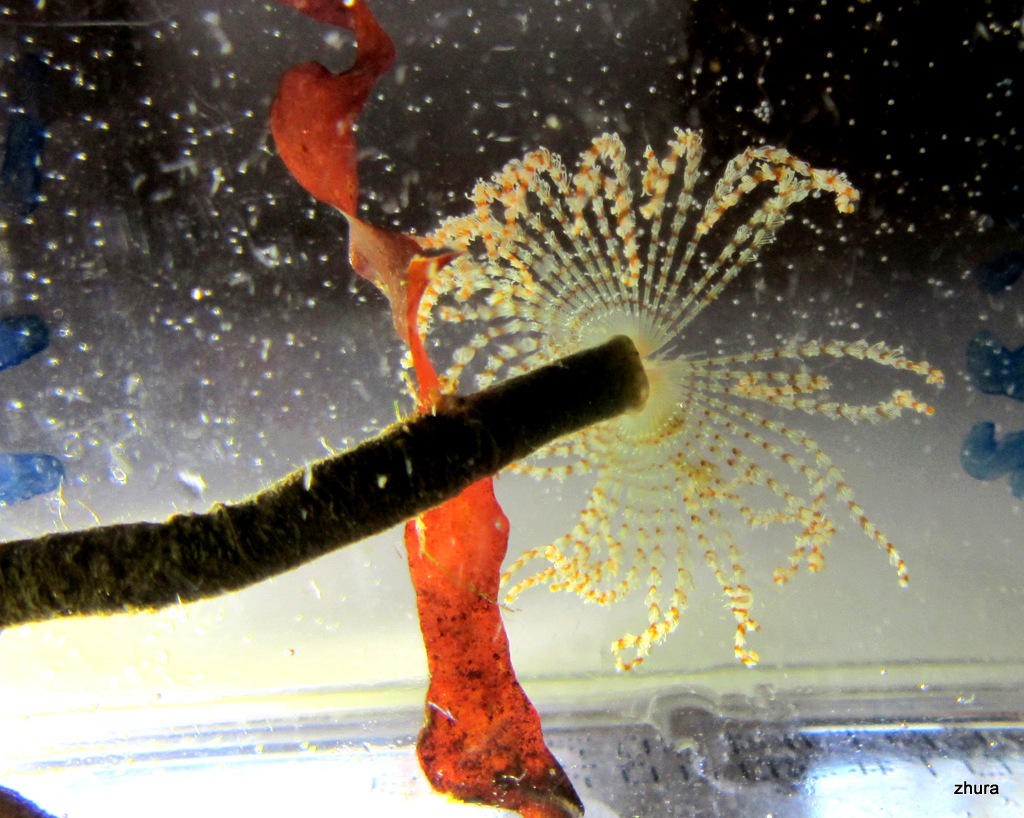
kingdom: Animalia
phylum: Annelida
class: Polychaeta
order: Sabellida
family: Sabellidae
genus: Branchiomma
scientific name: Branchiomma arcticum
